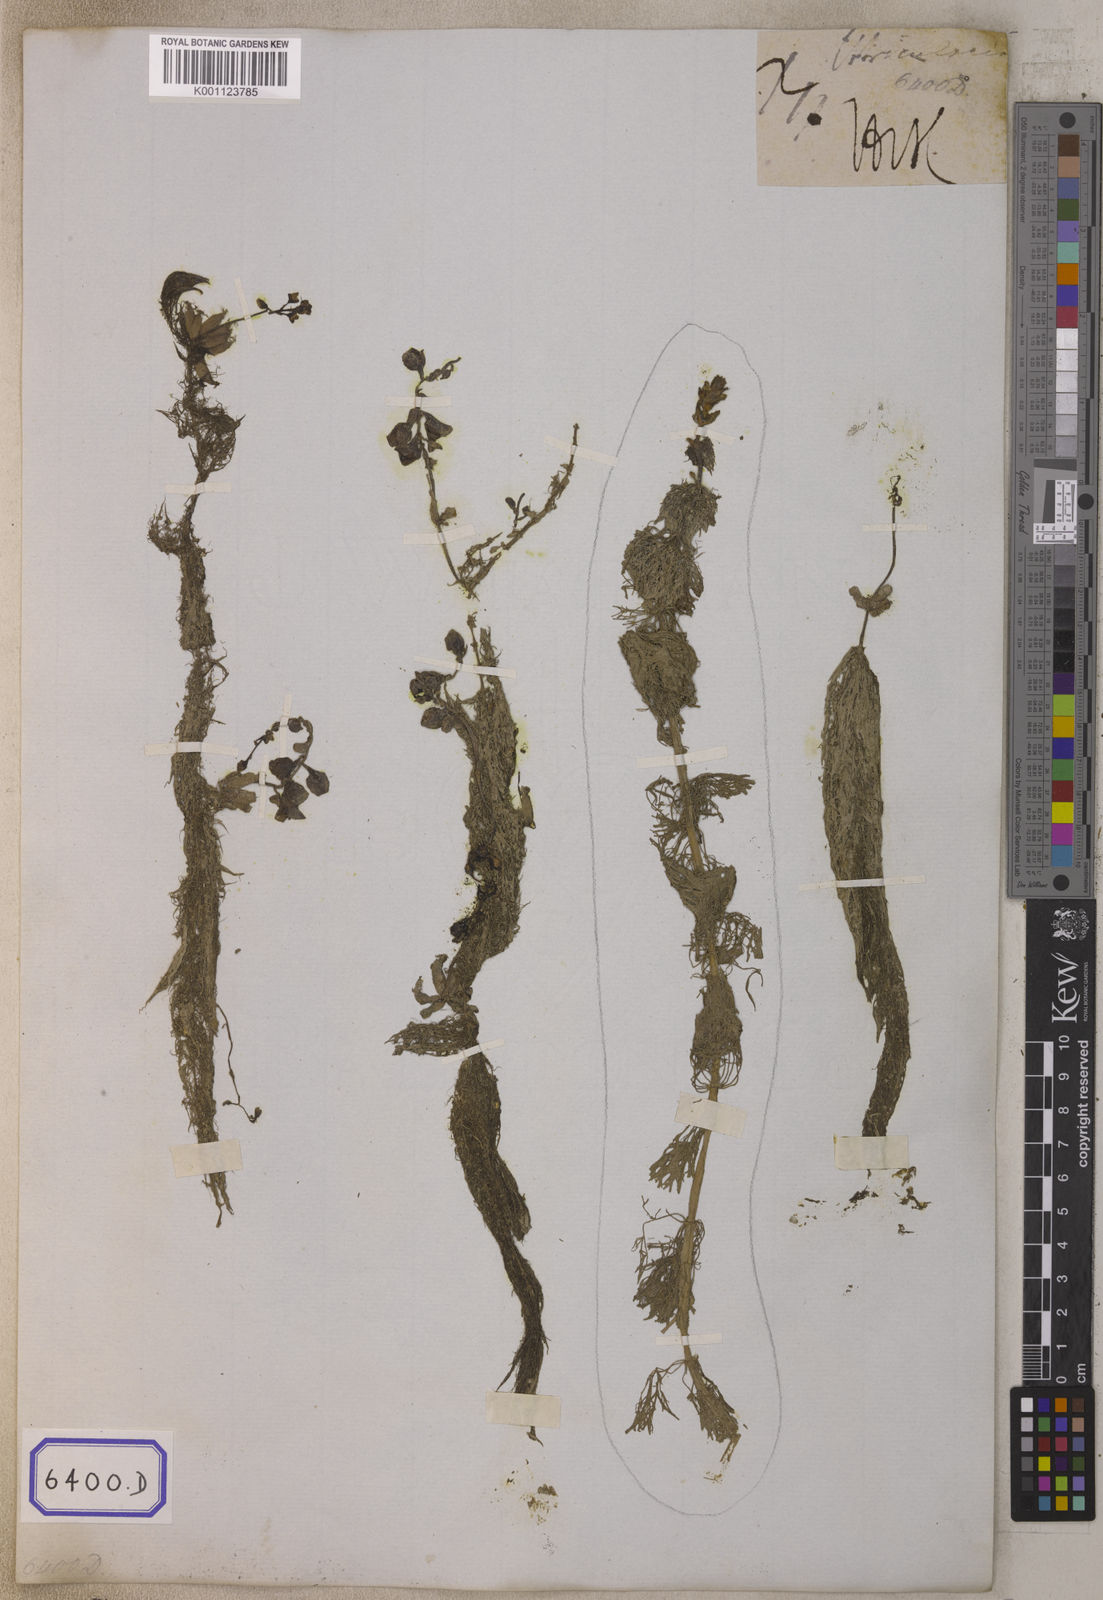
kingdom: Plantae
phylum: Tracheophyta
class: Magnoliopsida
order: Lamiales
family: Lentibulariaceae
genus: Utricularia
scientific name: Utricularia stellaris
